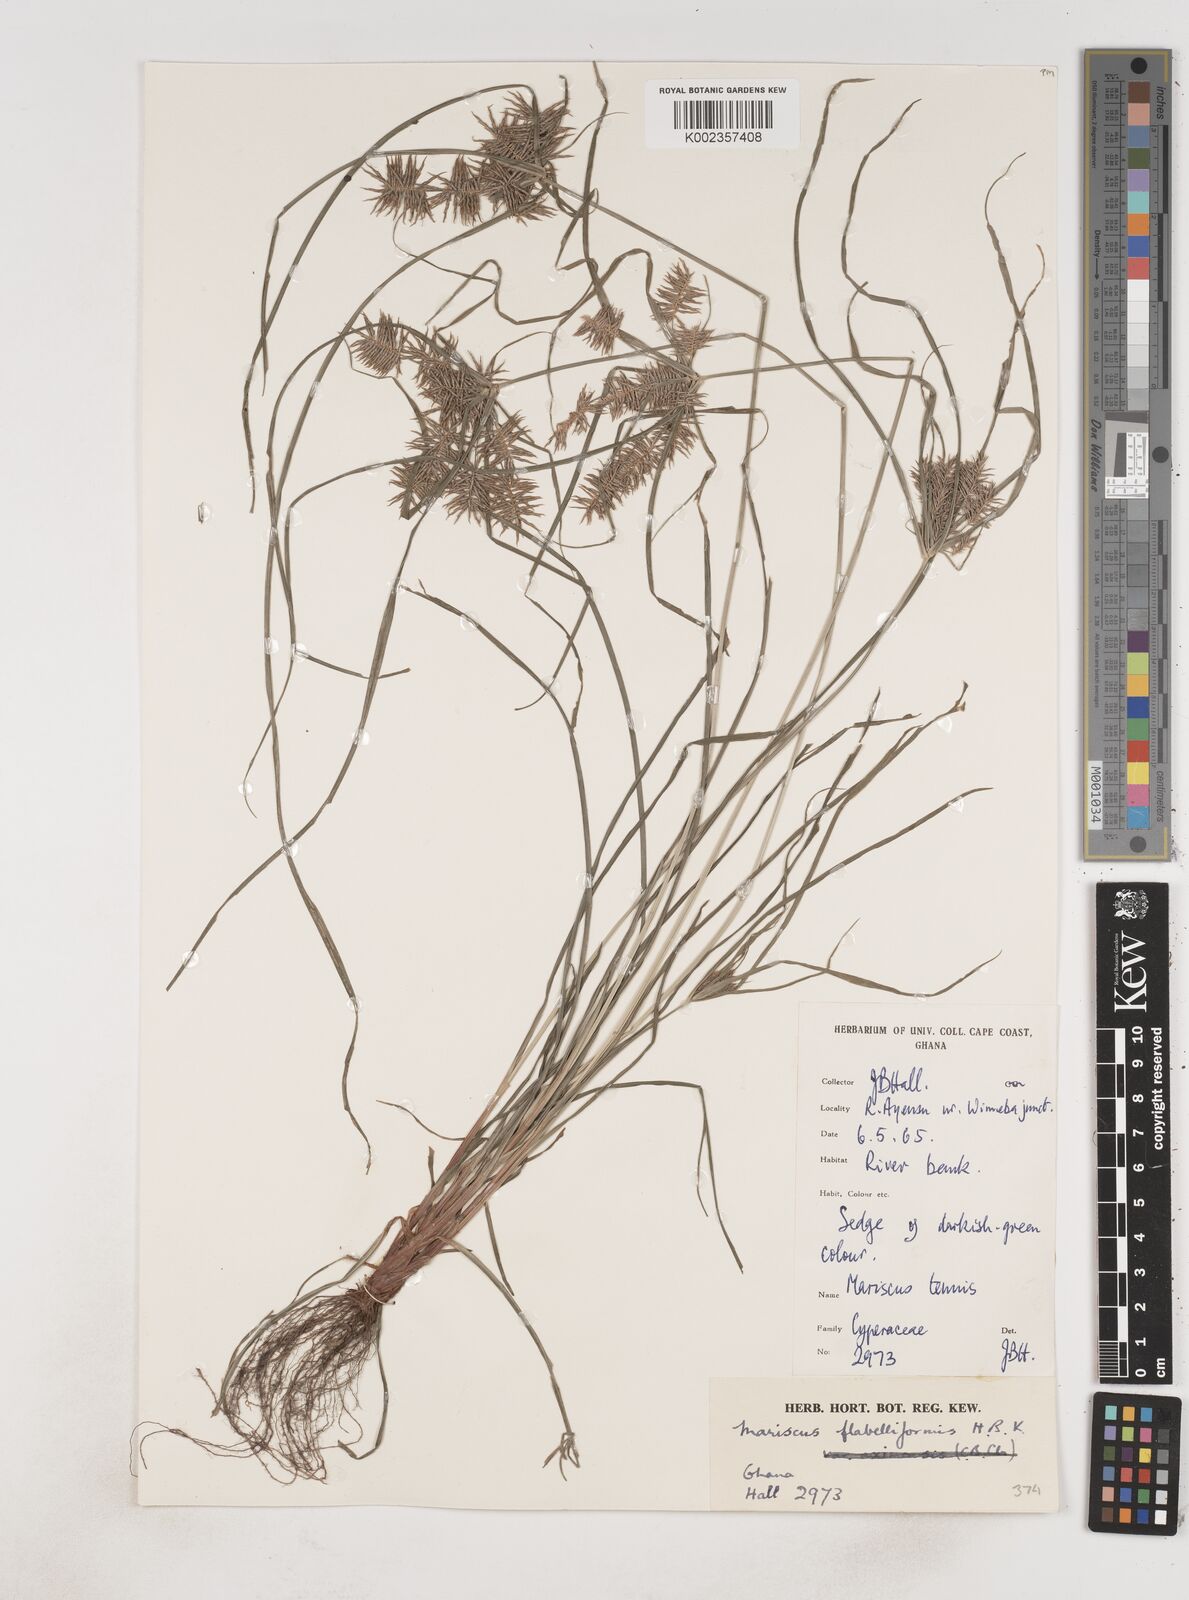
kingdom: Plantae
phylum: Tracheophyta
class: Liliopsida
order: Poales
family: Cyperaceae
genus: Cyperus
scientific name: Cyperus tenuis
